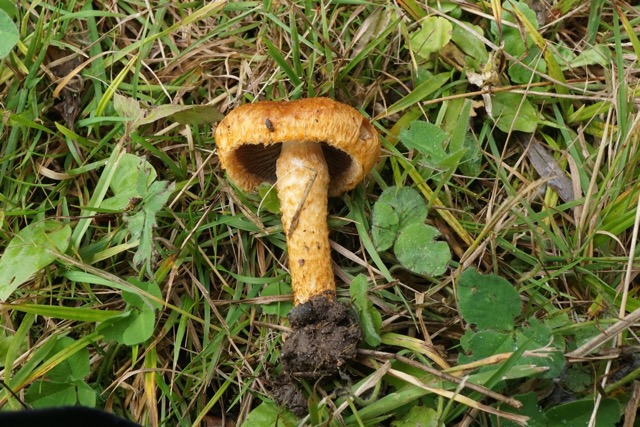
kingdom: Fungi
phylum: Basidiomycota
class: Agaricomycetes
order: Agaricales
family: Psathyrellaceae
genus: Lacrymaria
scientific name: Lacrymaria pyrotricha
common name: ildhåret mørkhat
